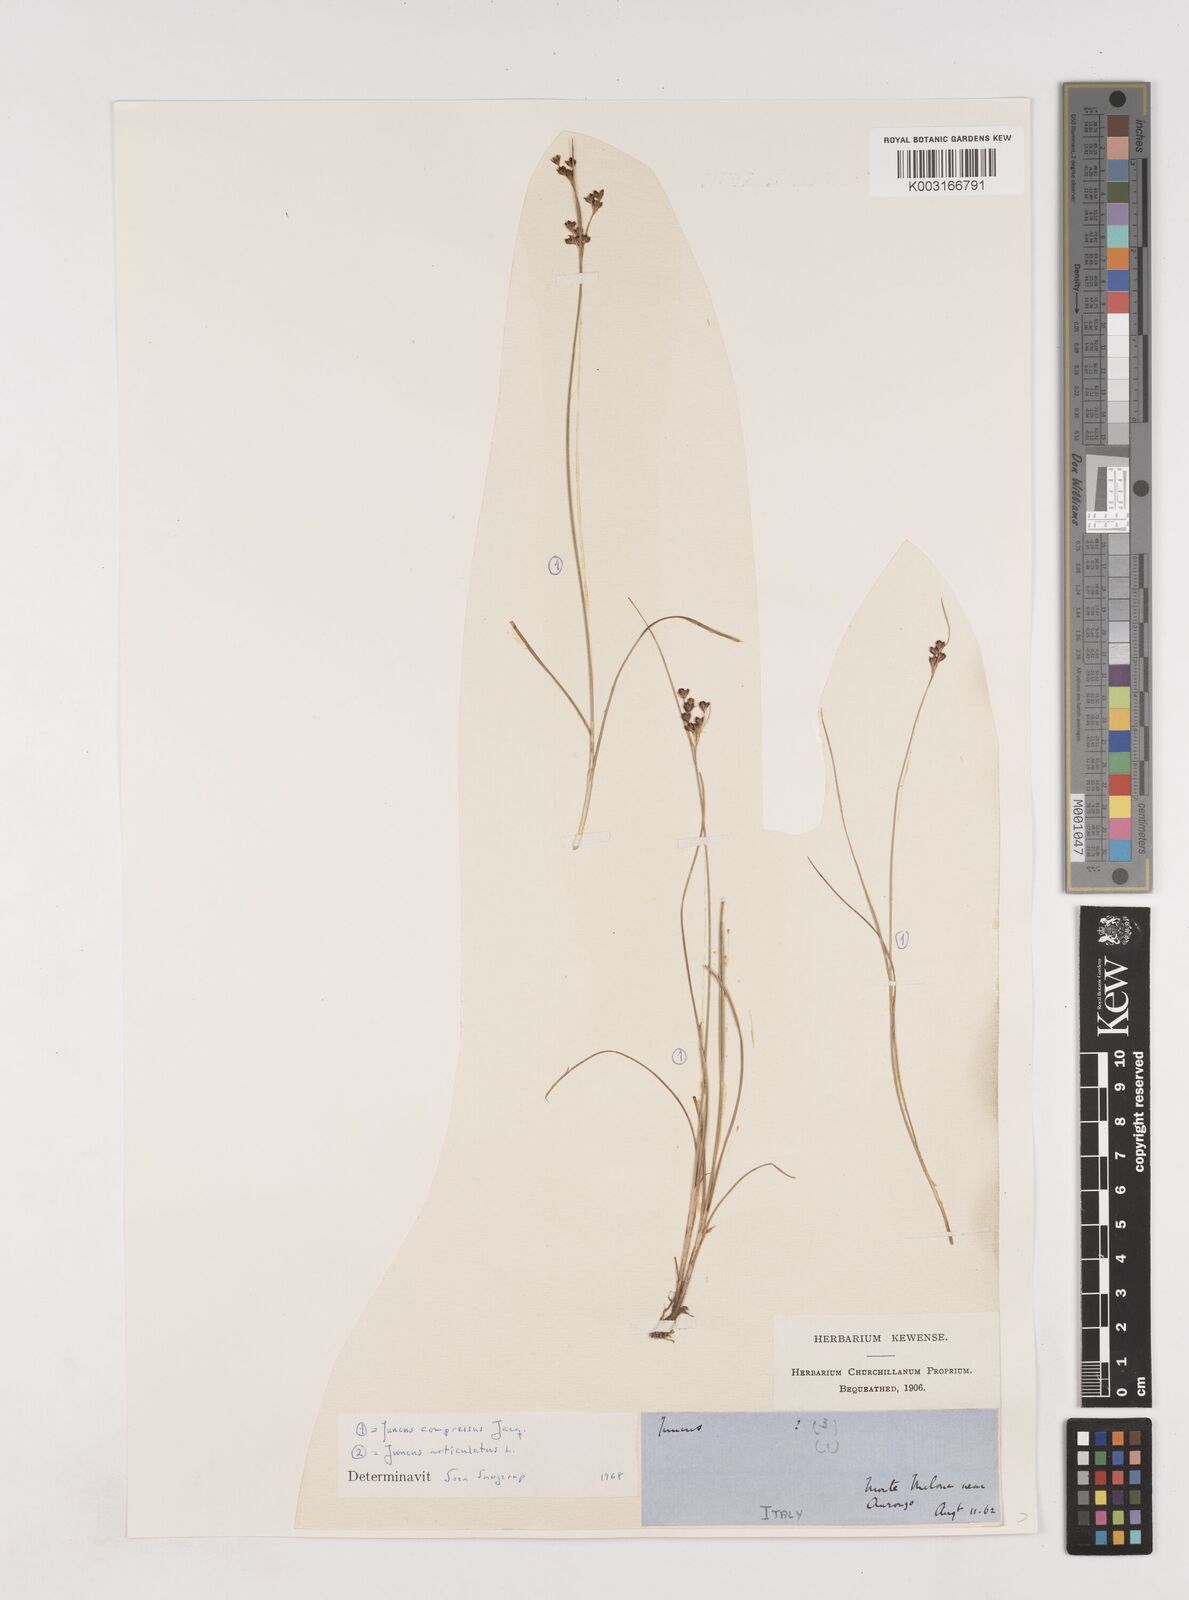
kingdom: Plantae
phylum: Tracheophyta
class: Liliopsida
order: Poales
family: Juncaceae
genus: Juncus
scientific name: Juncus compressus
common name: Round-fruited rush
